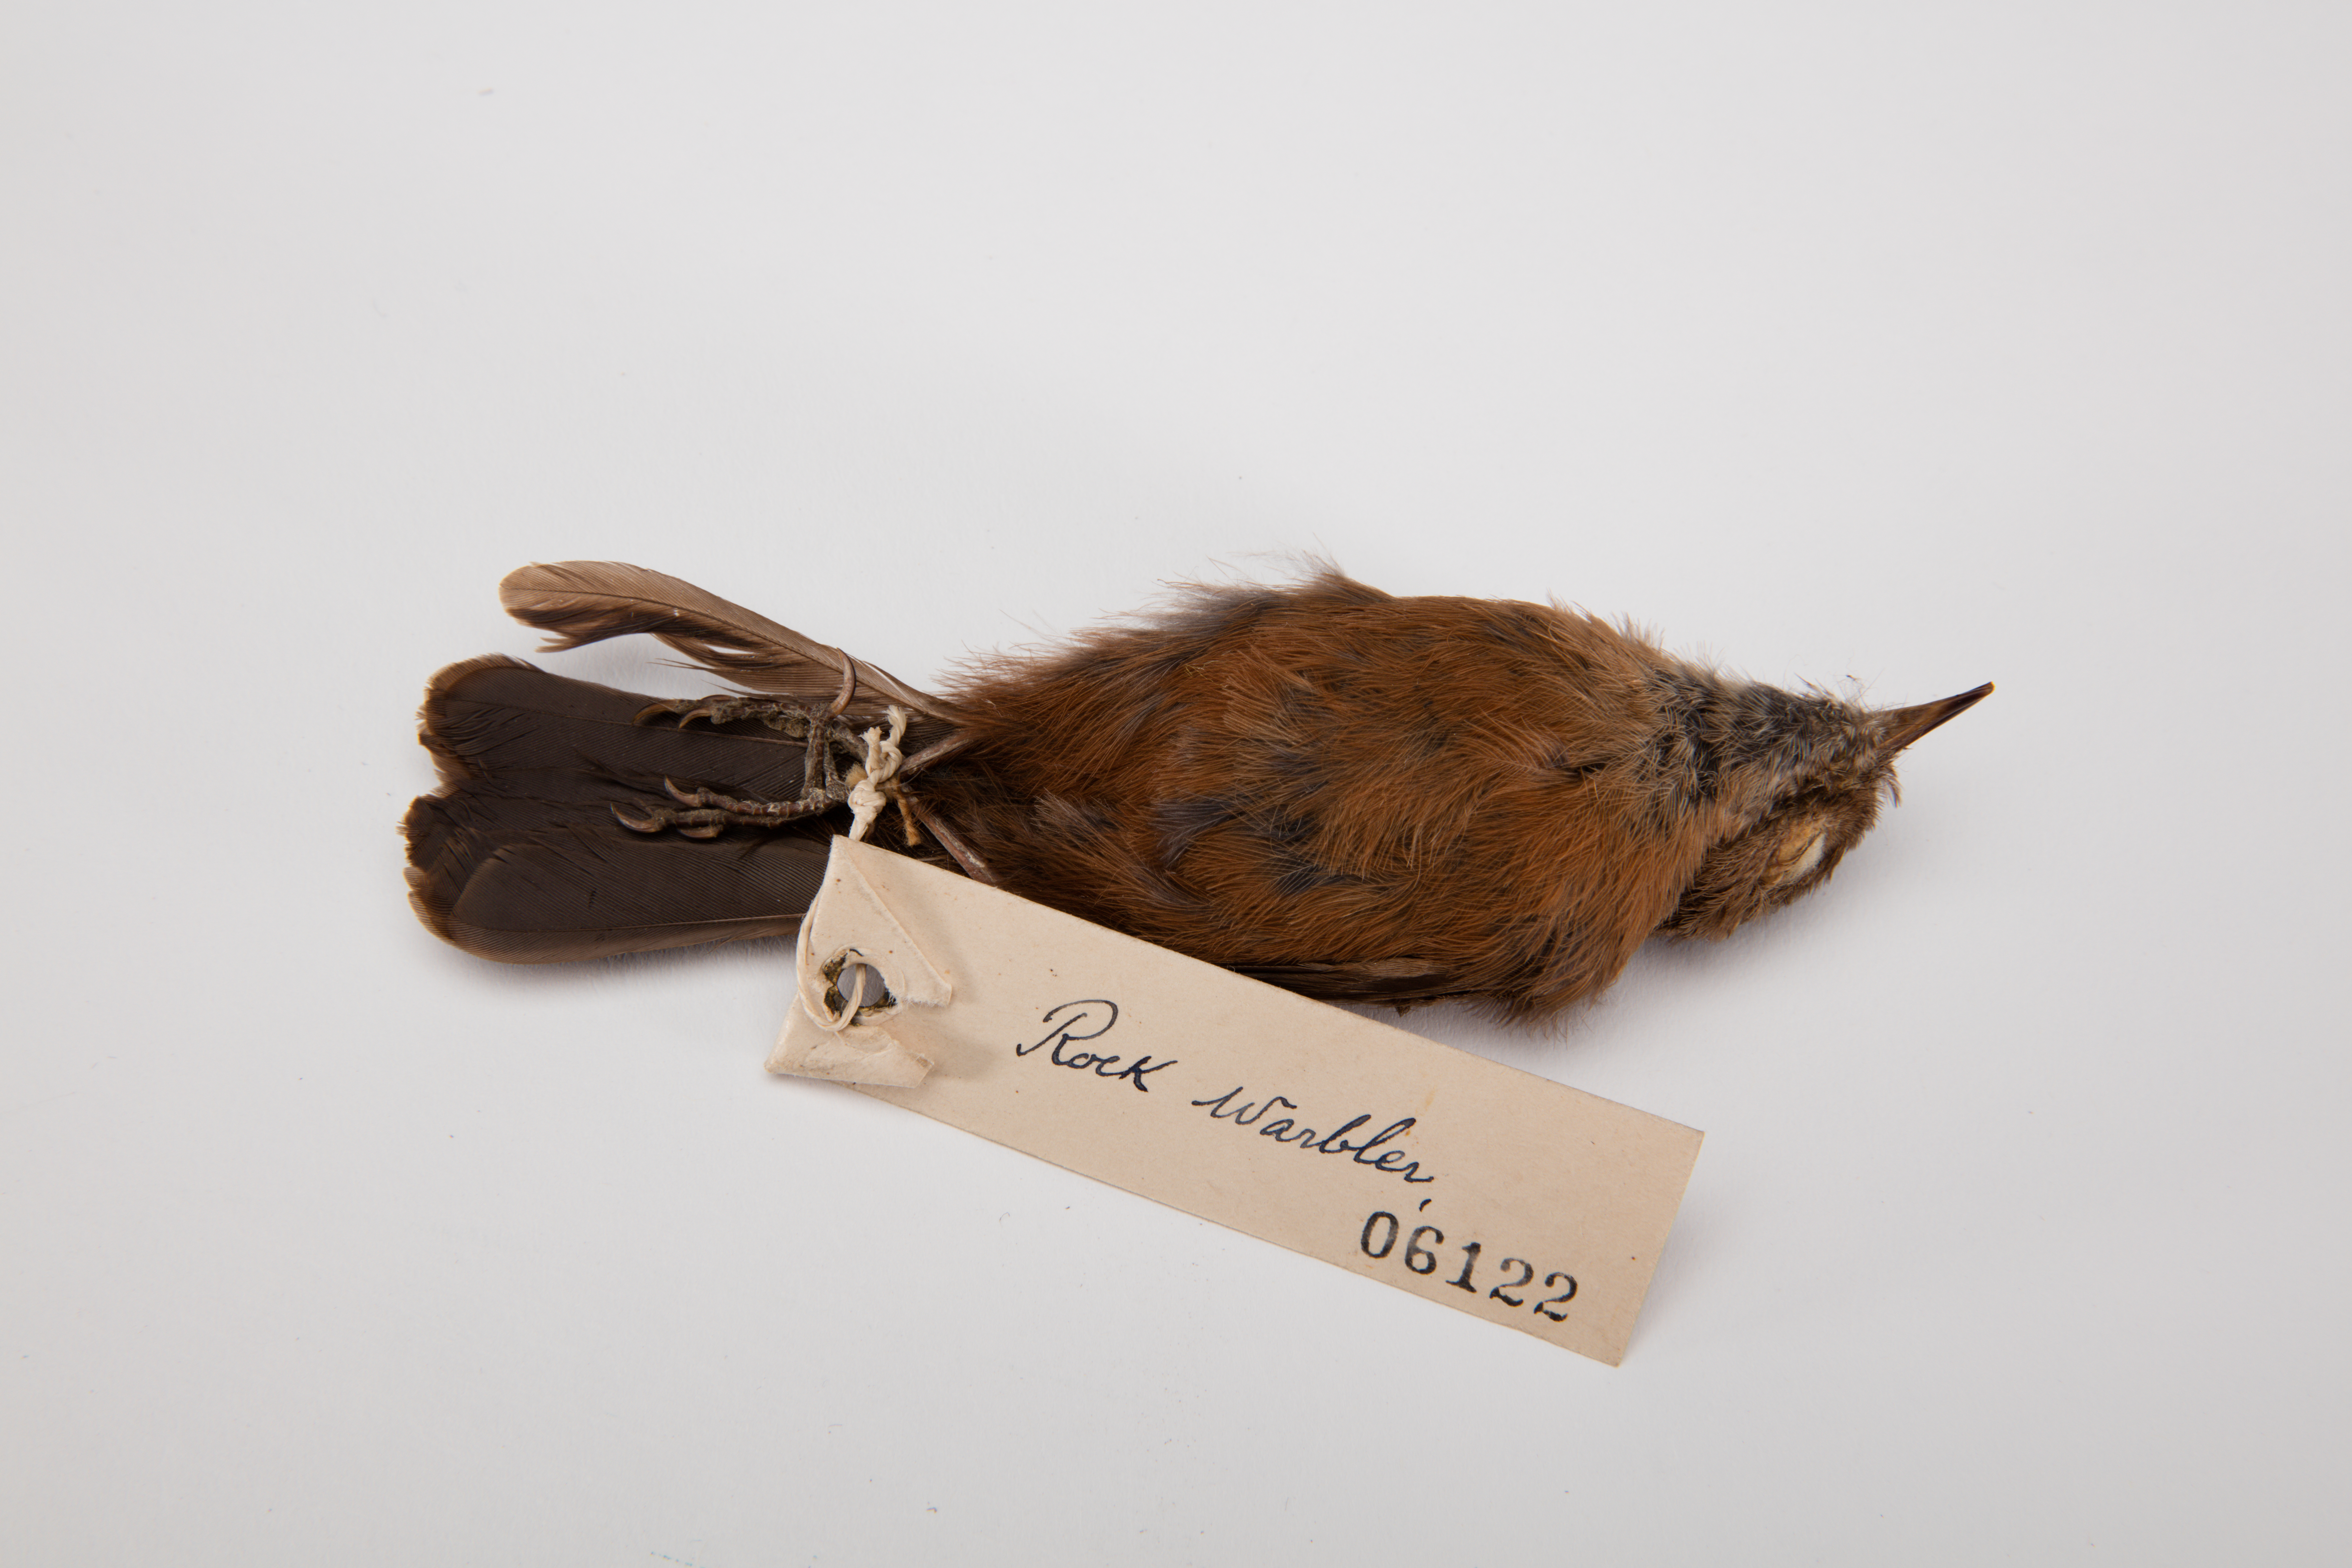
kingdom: Animalia
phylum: Chordata
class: Aves
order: Passeriformes
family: Acanthizidae
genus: Origma
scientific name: Origma solitaria
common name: Rockwarbler
